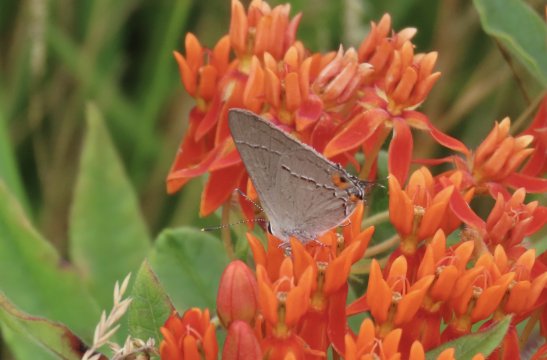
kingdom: Animalia
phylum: Arthropoda
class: Insecta
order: Lepidoptera
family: Lycaenidae
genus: Strymon
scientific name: Strymon melinus
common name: Gray Hairstreak
